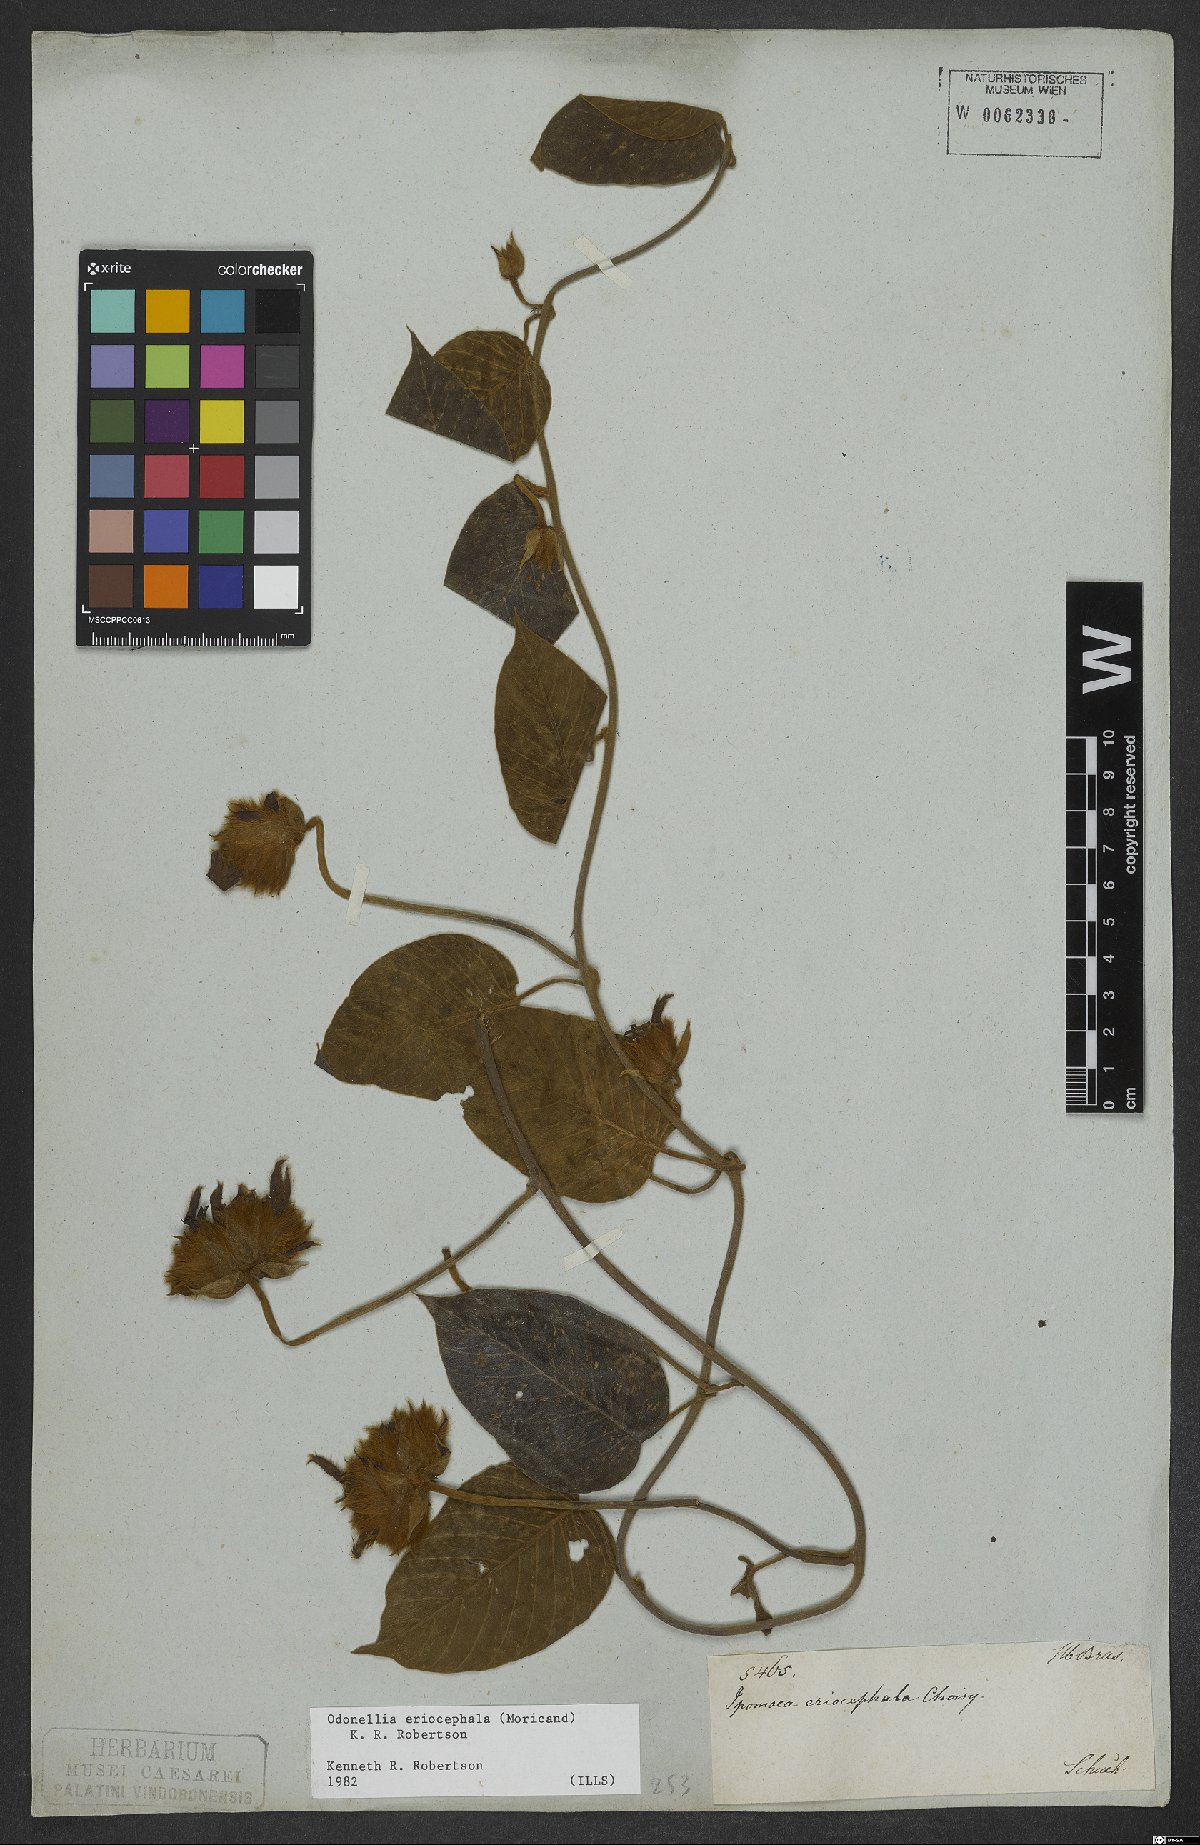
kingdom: Plantae
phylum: Tracheophyta
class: Magnoliopsida
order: Solanales
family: Convolvulaceae
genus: Odonellia
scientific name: Odonellia eriocephala
